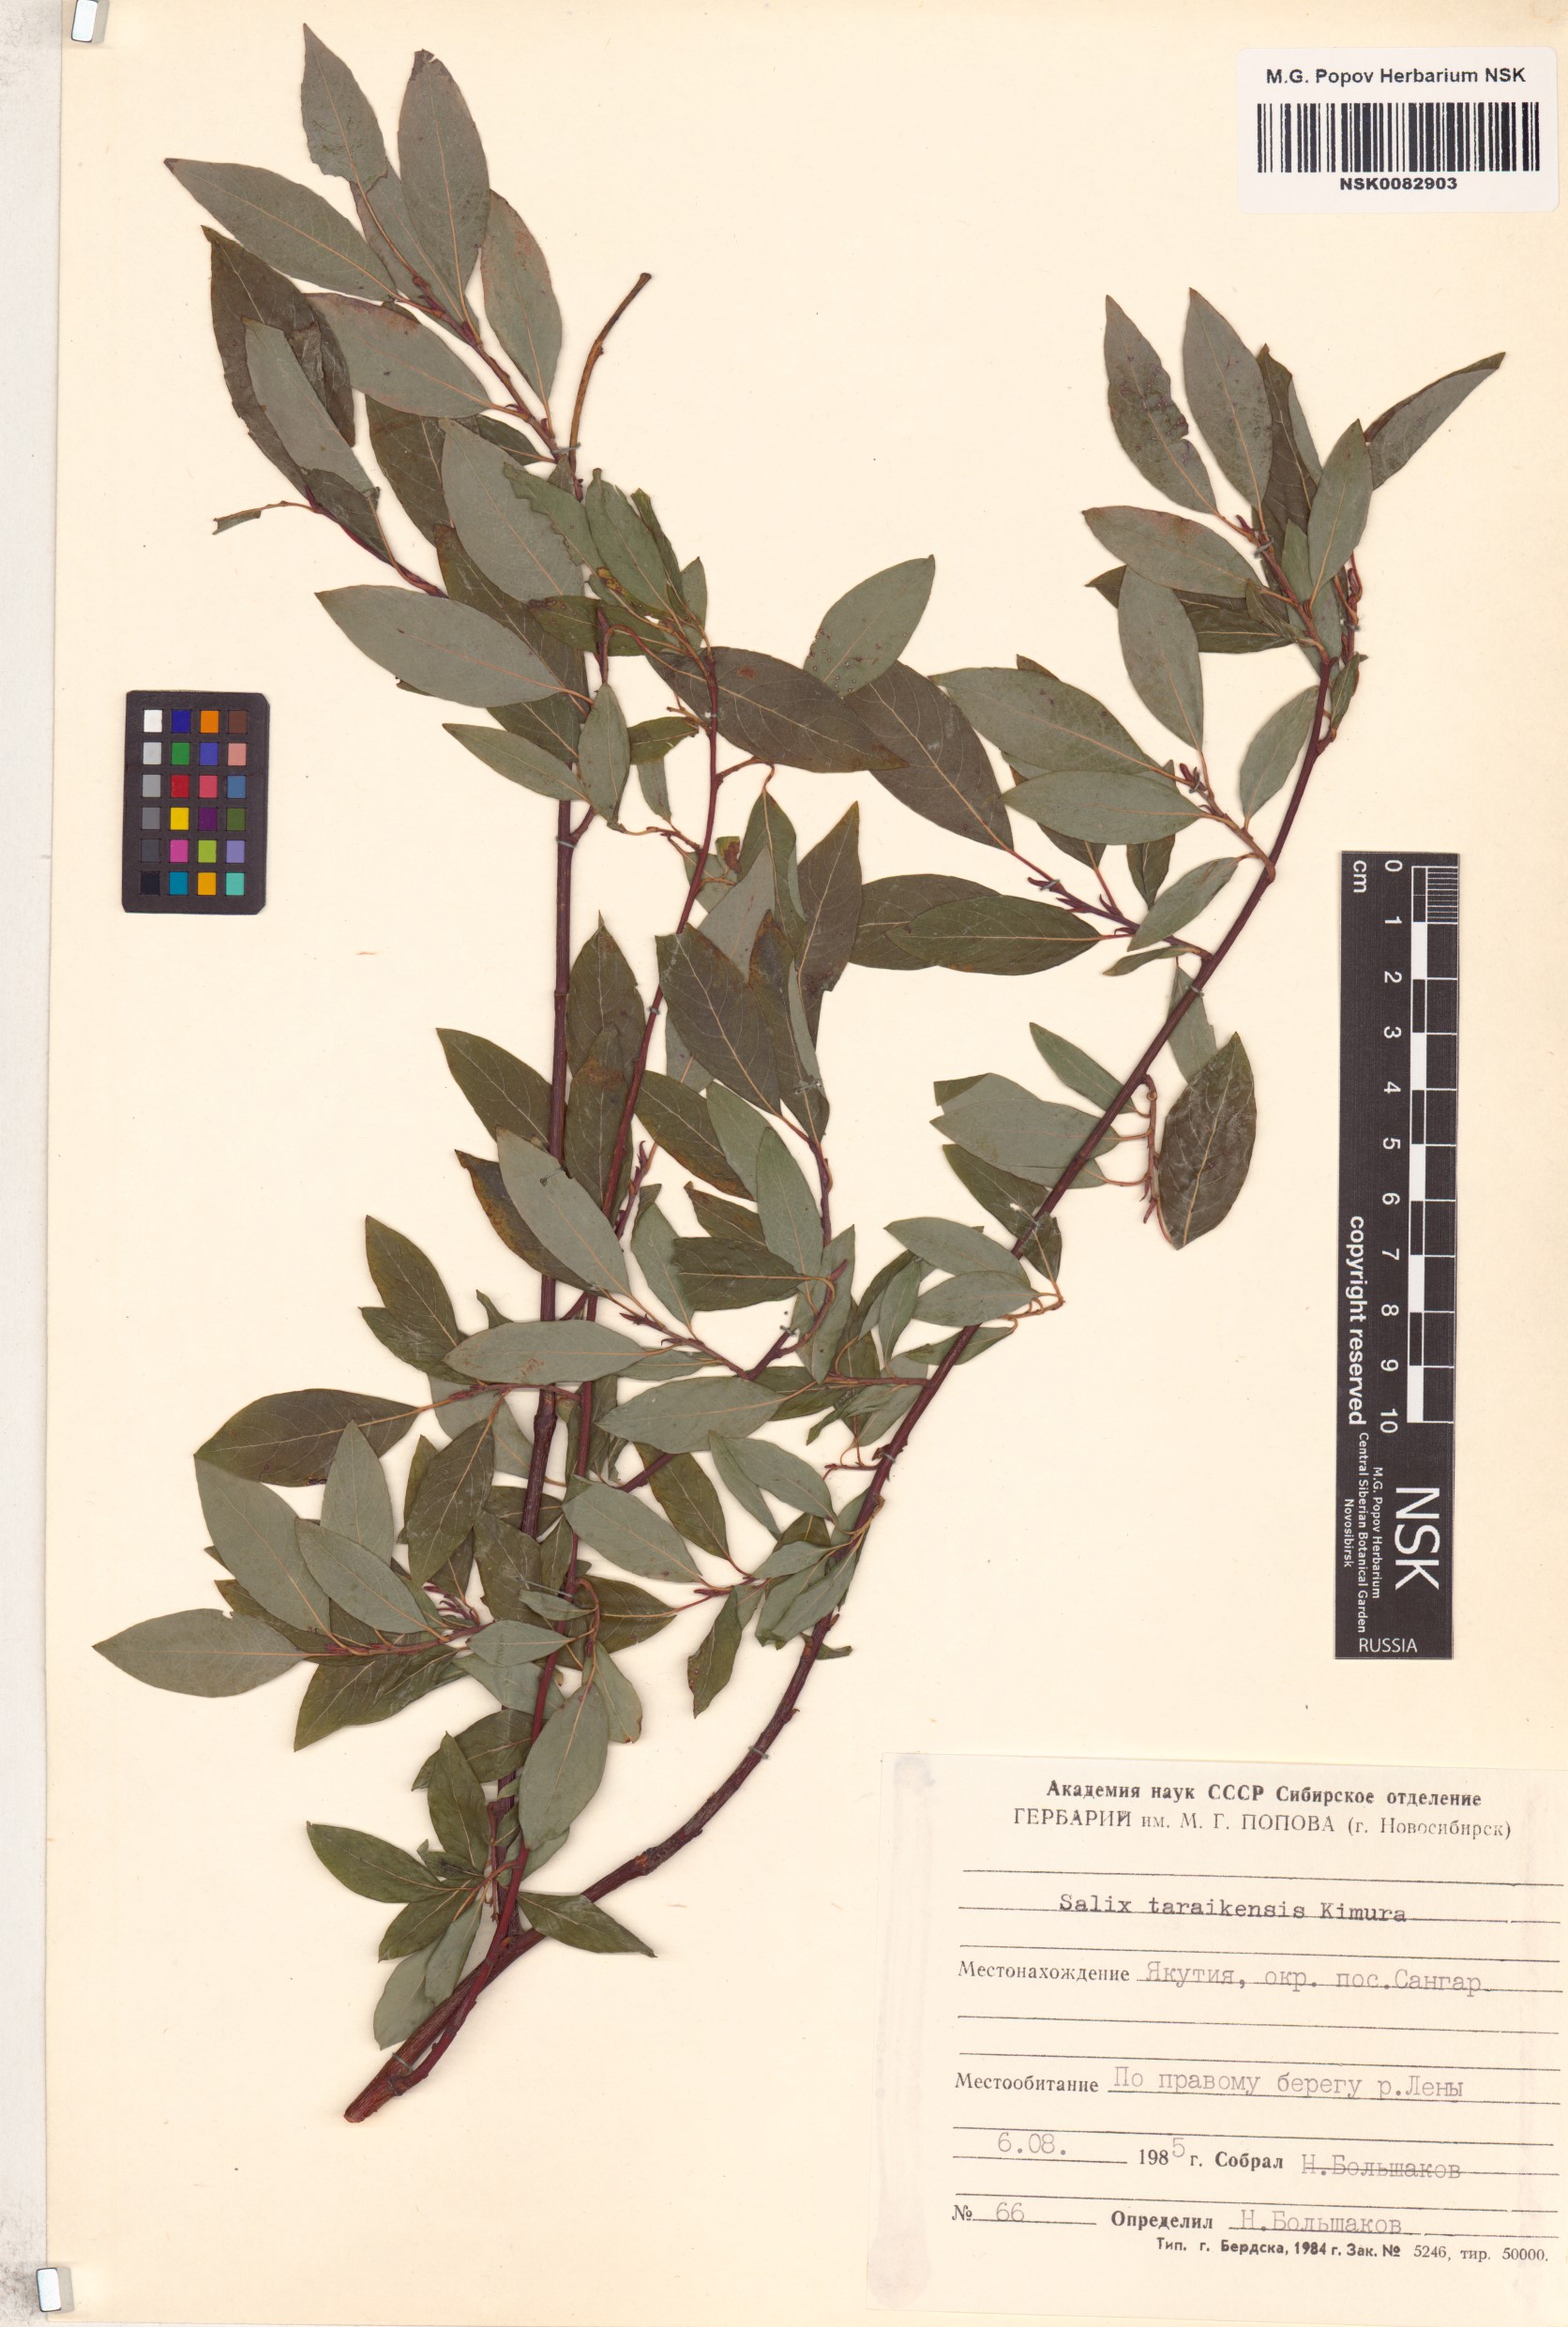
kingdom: Plantae
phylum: Tracheophyta
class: Magnoliopsida
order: Malpighiales
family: Salicaceae
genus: Salix
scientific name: Salix taraikensis
